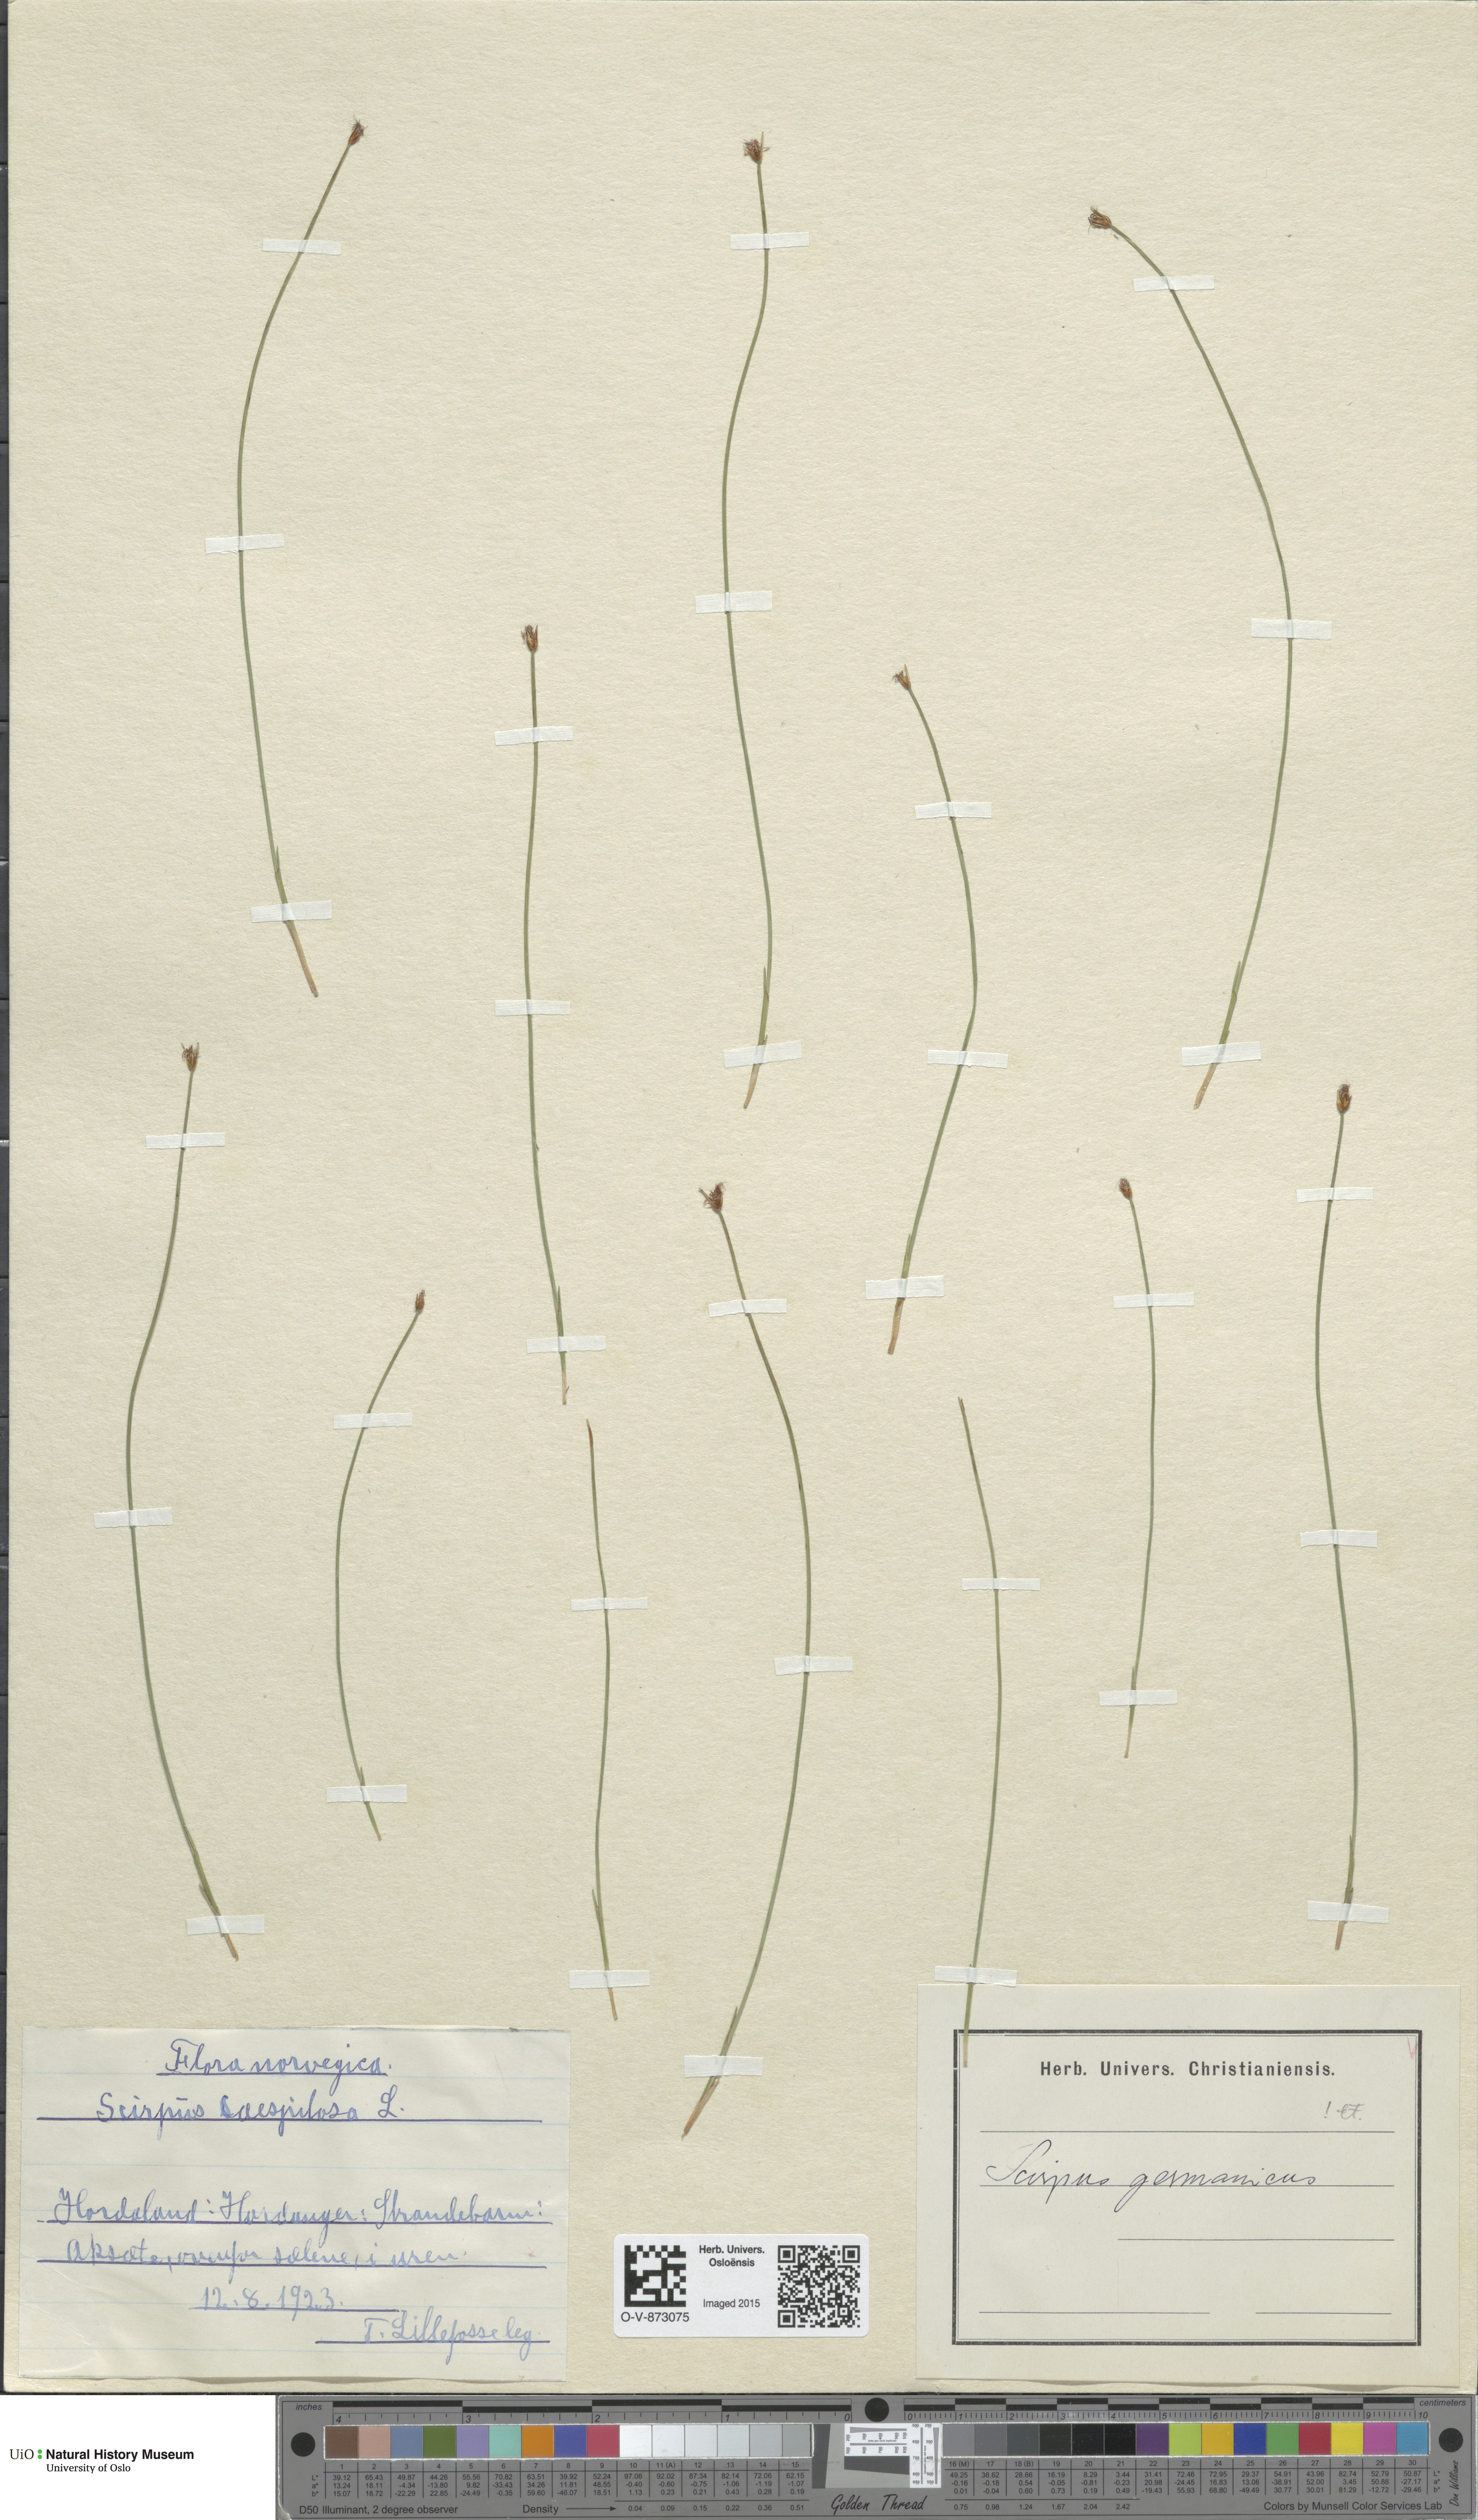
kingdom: Plantae
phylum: Tracheophyta
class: Liliopsida
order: Poales
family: Cyperaceae
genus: Trichophorum
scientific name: Trichophorum cespitosum
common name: Cespitose bulrush
